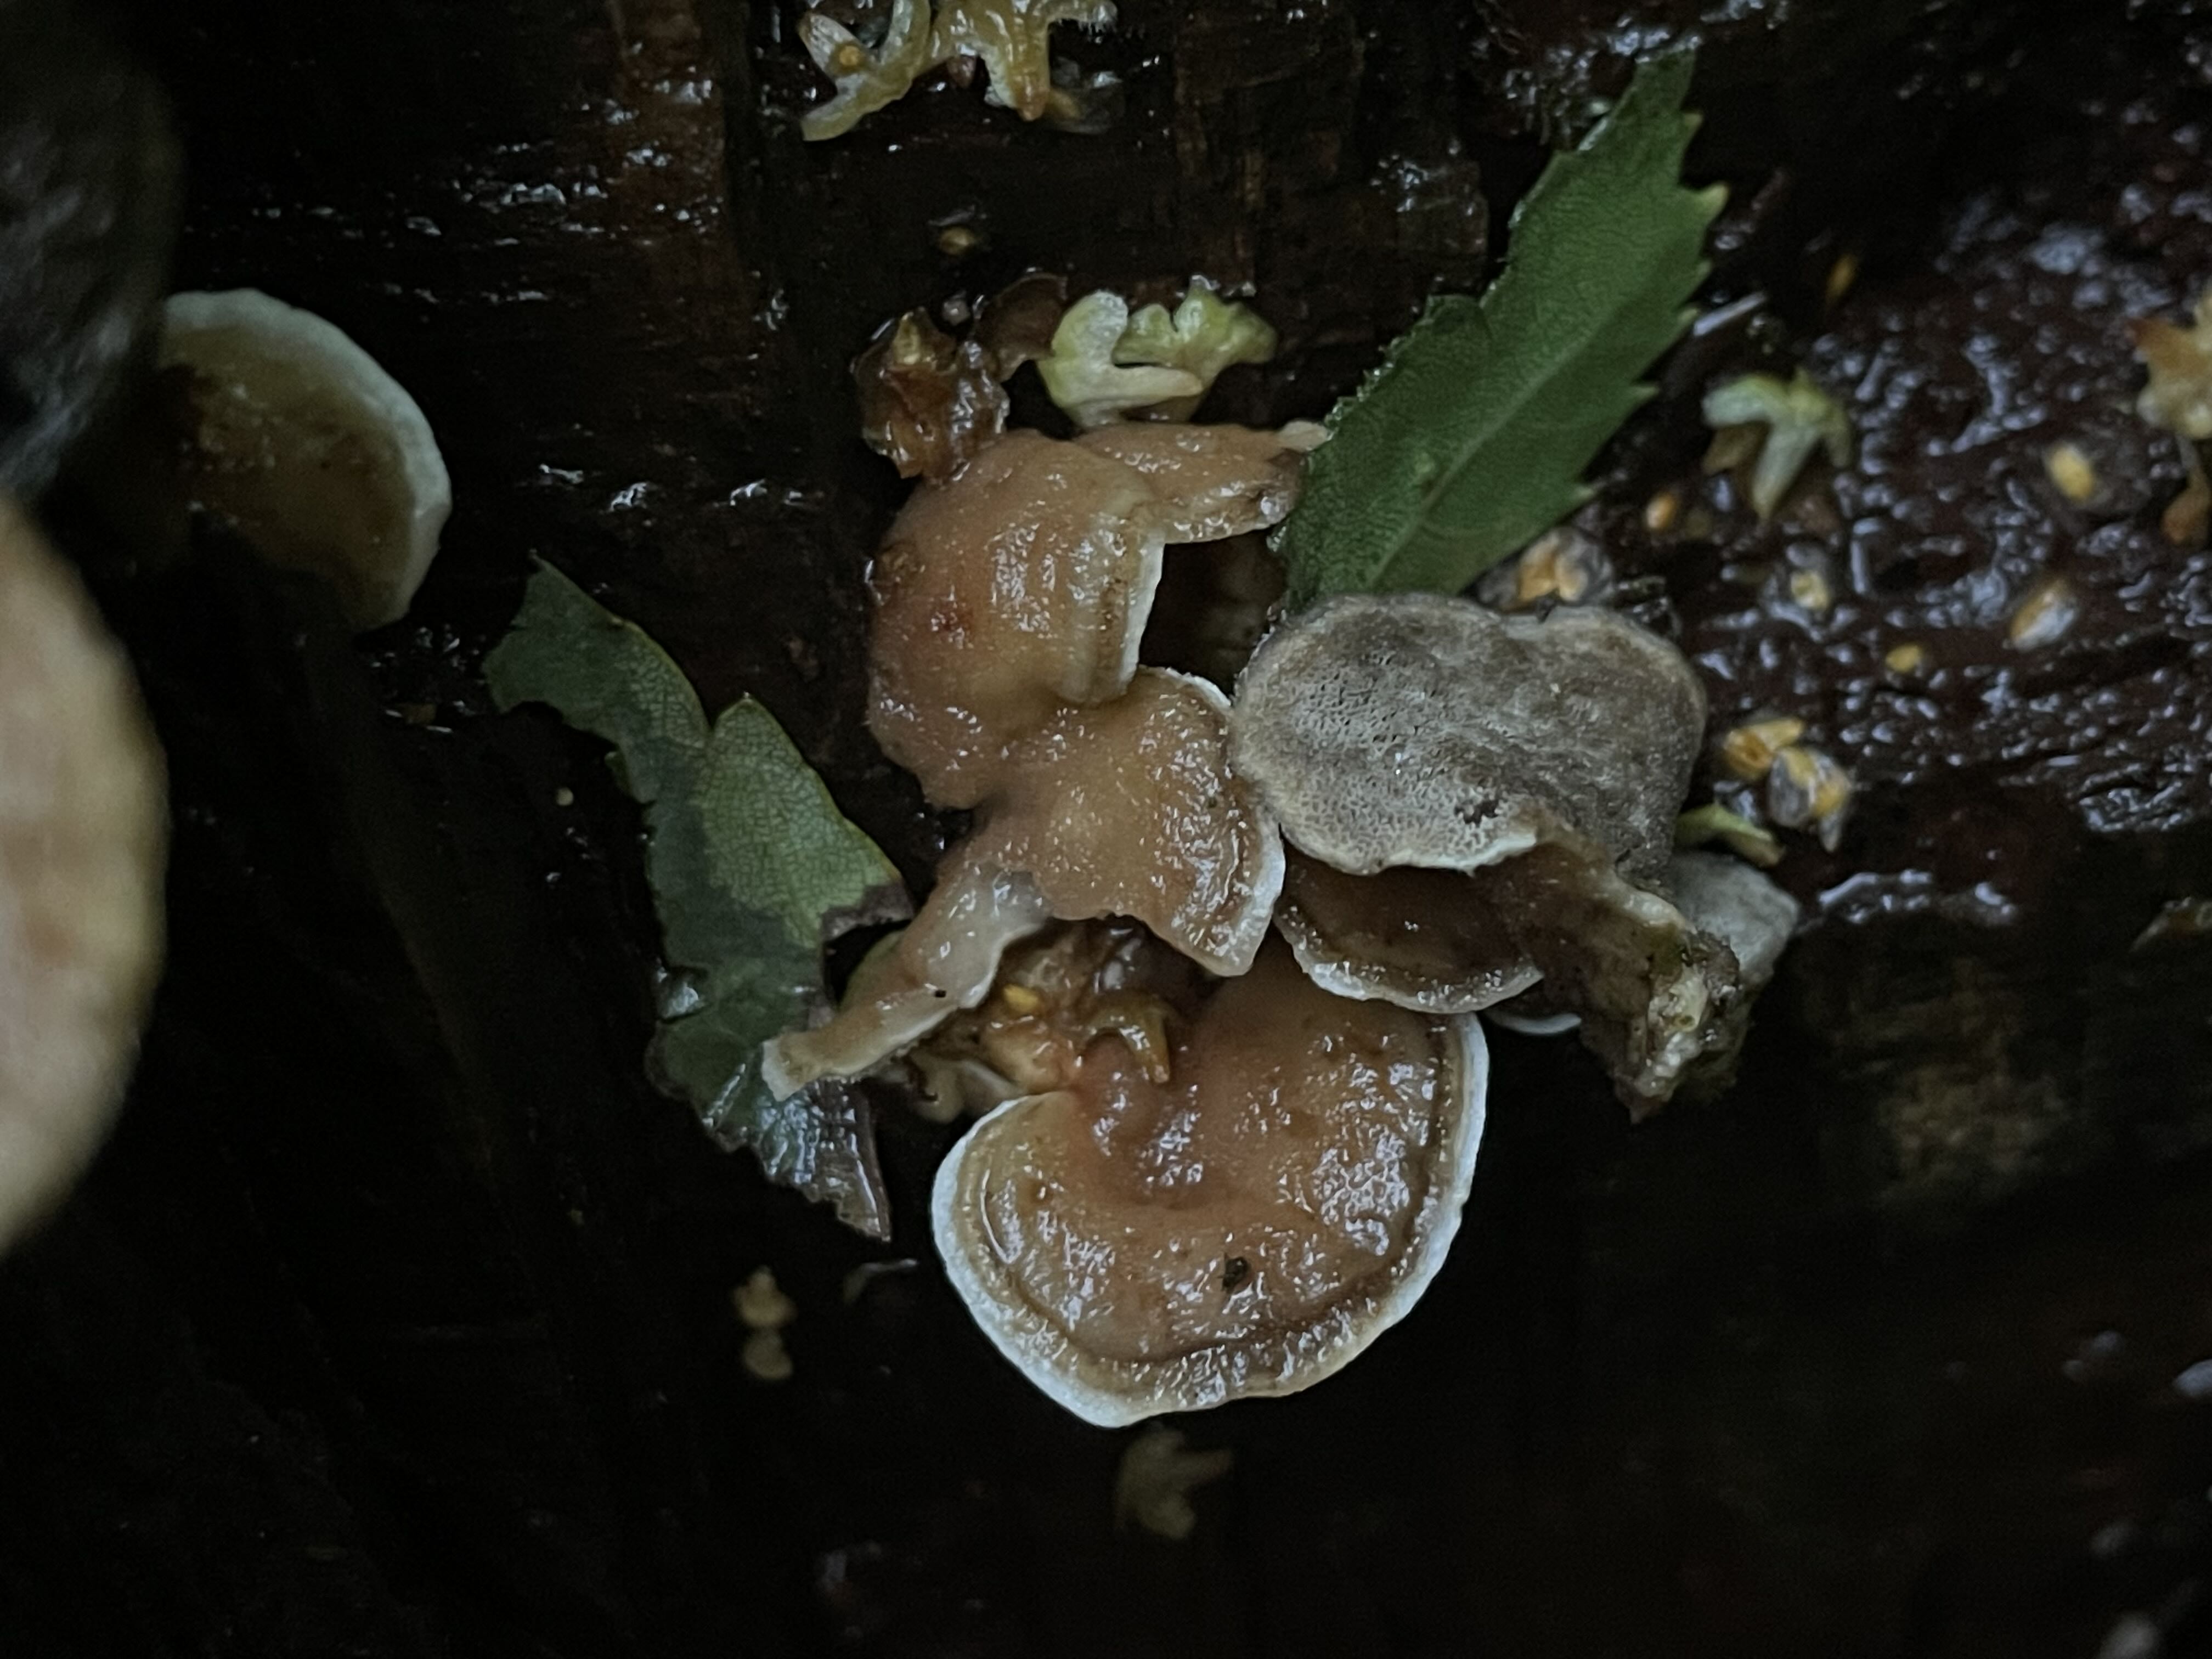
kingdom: Fungi
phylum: Basidiomycota
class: Agaricomycetes
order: Polyporales
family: Phanerochaetaceae
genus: Bjerkandera
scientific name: Bjerkandera adusta
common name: sveden sodporesvamp
